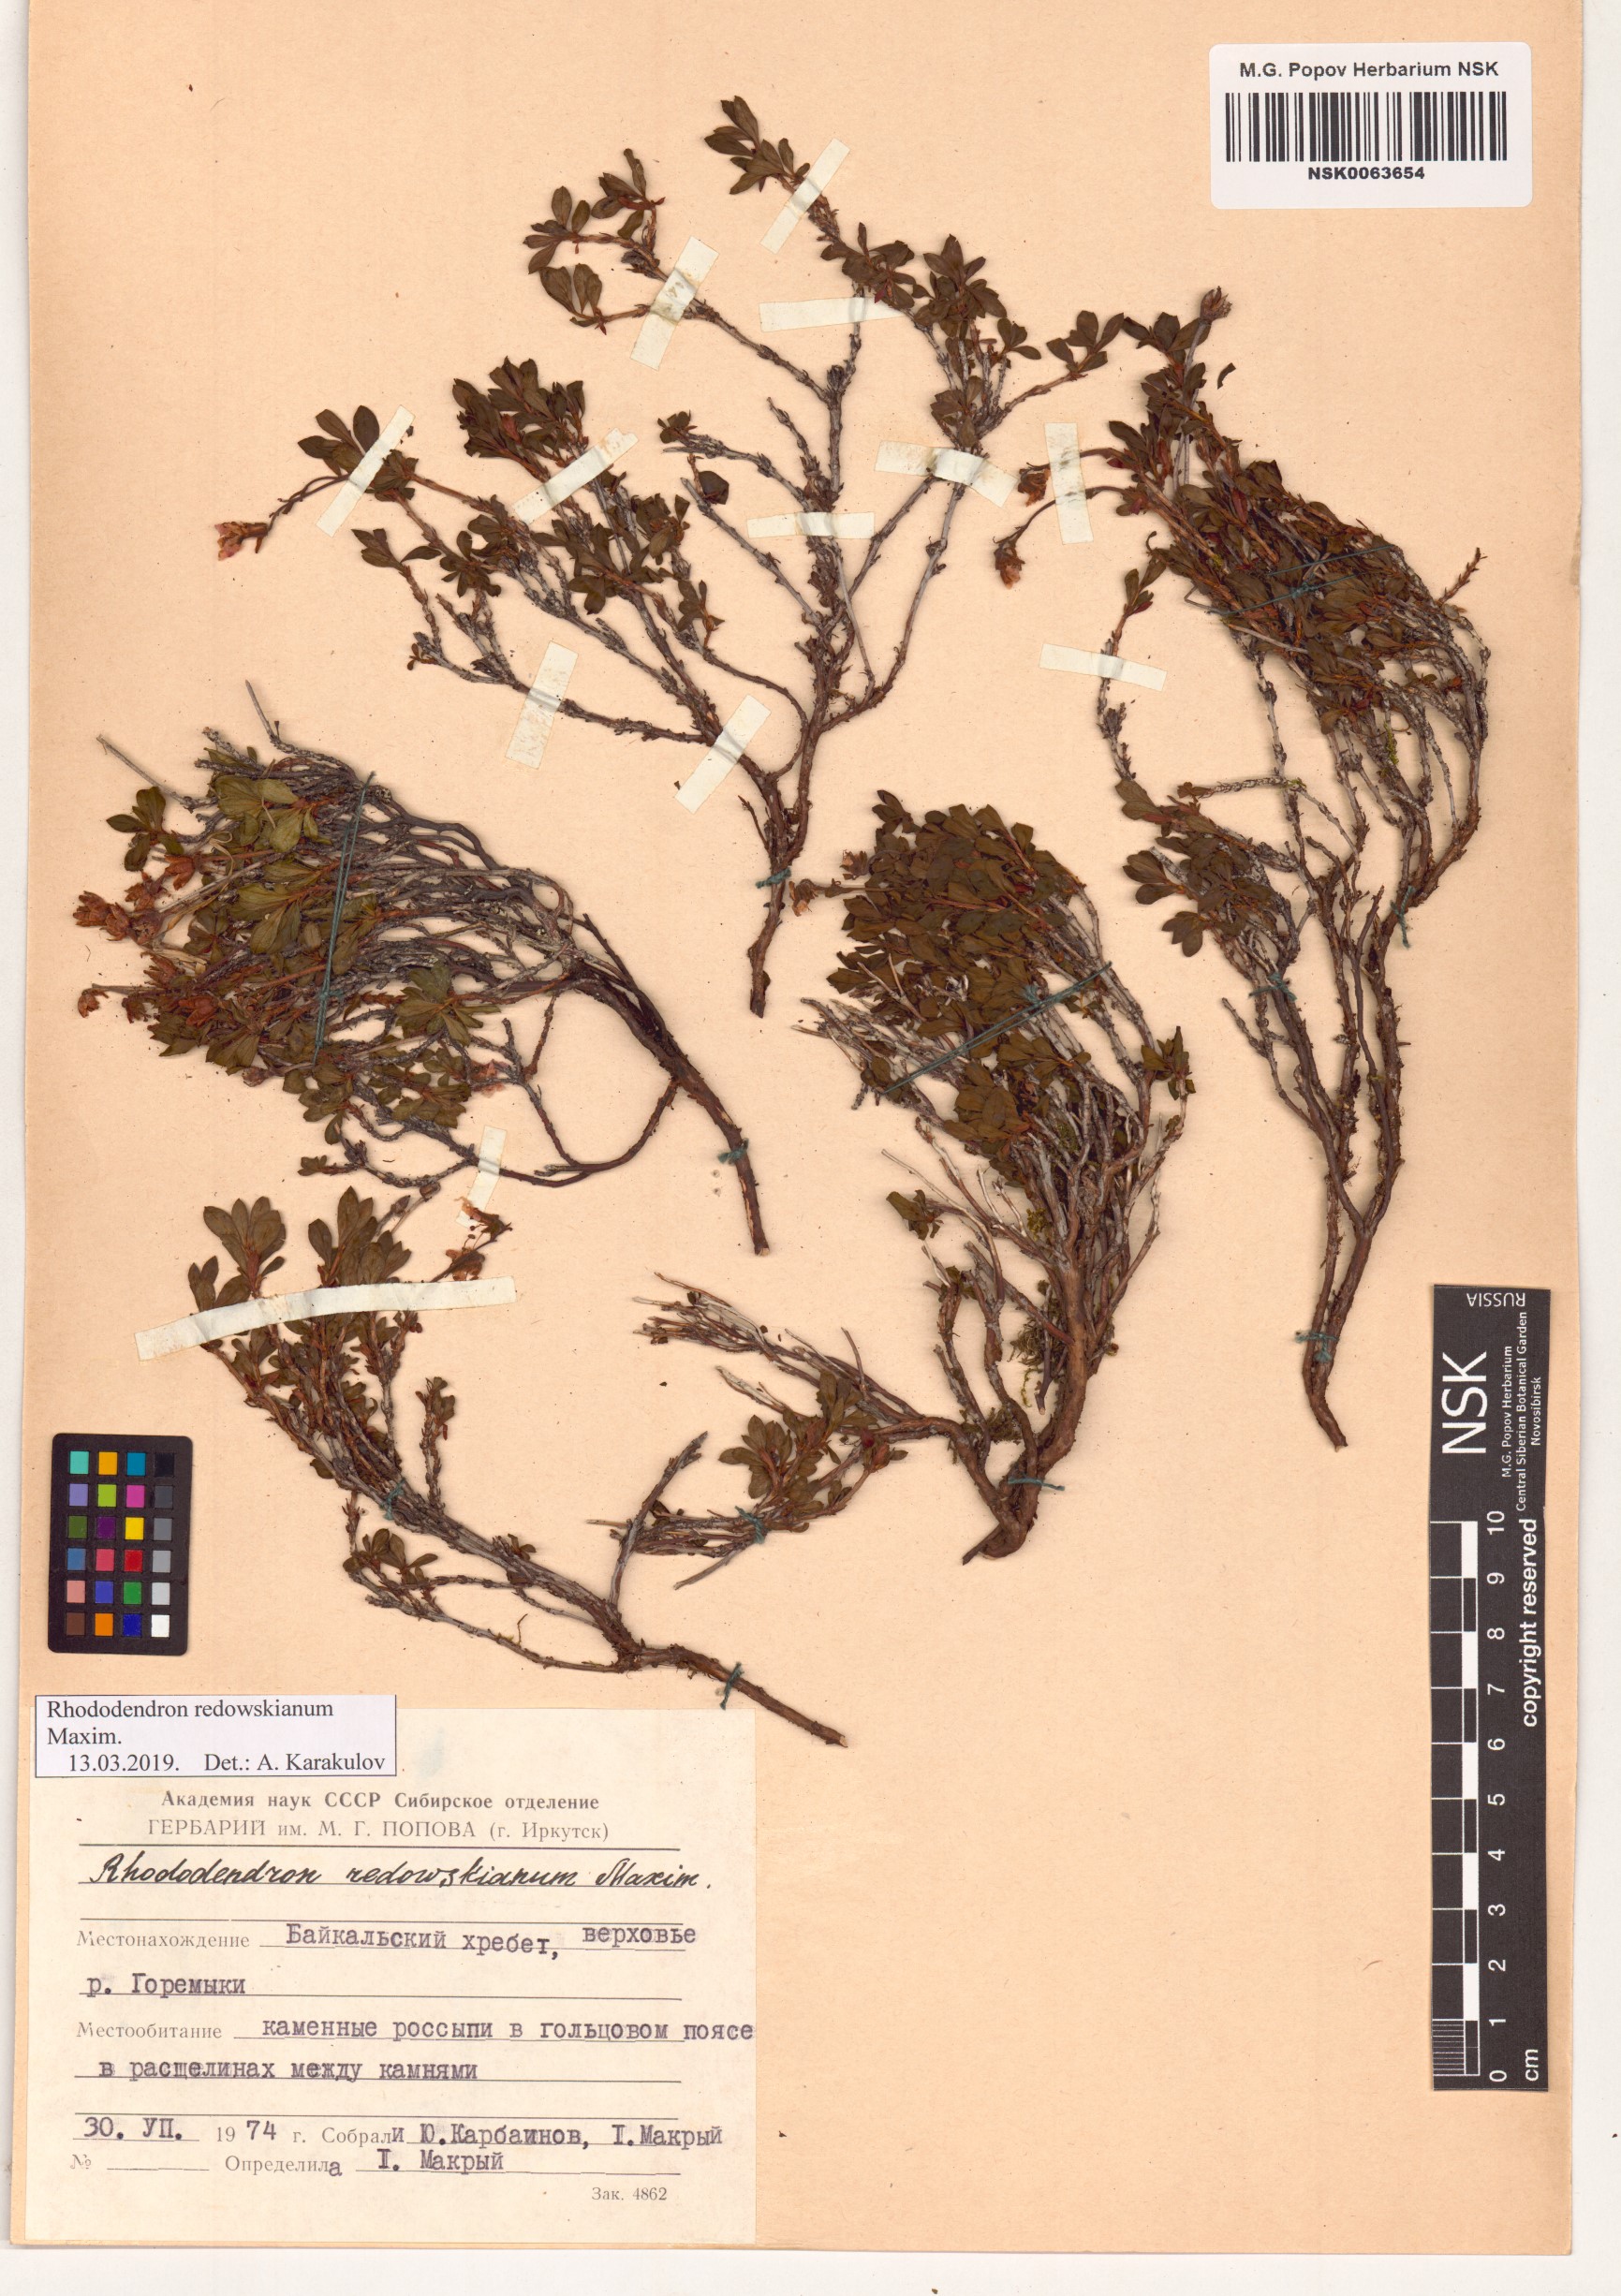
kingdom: Plantae
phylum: Tracheophyta
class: Magnoliopsida
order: Ericales
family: Ericaceae
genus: Rhododendron
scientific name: Rhododendron redowskianum
